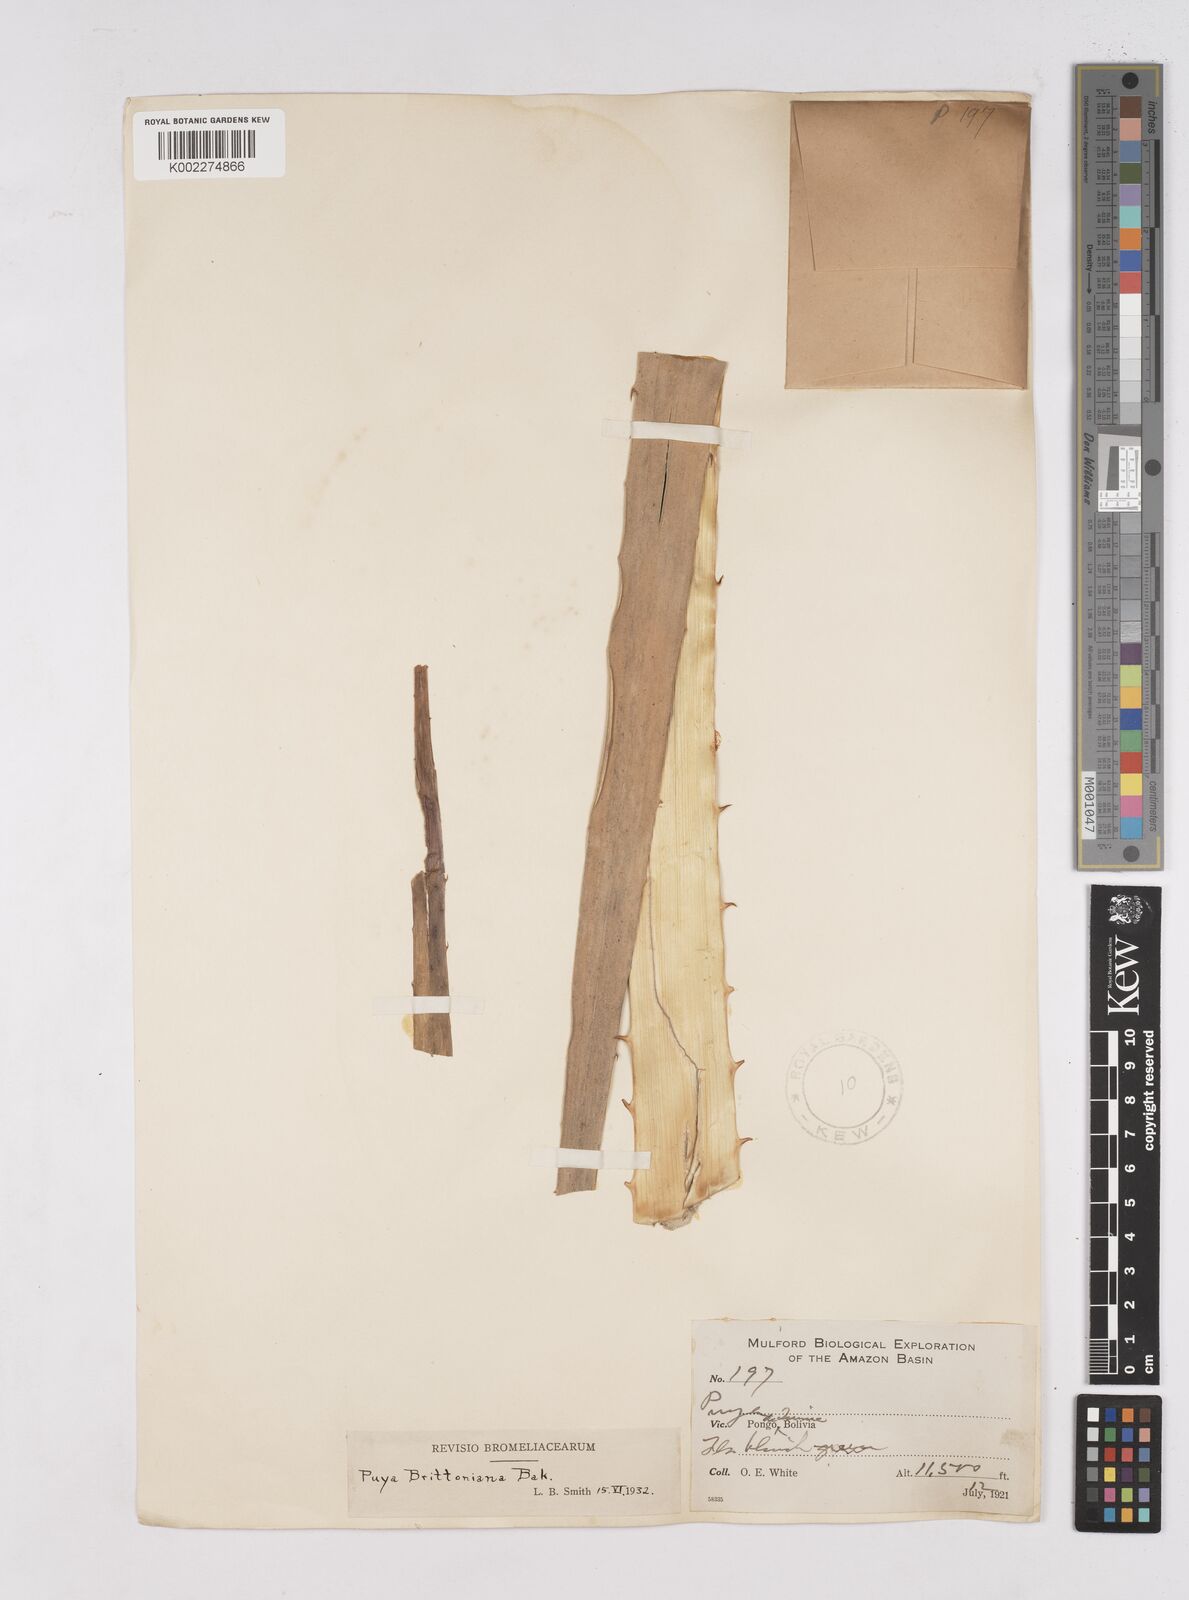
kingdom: Plantae
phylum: Tracheophyta
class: Liliopsida
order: Poales
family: Bromeliaceae
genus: Puya
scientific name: Puya brittoniana
